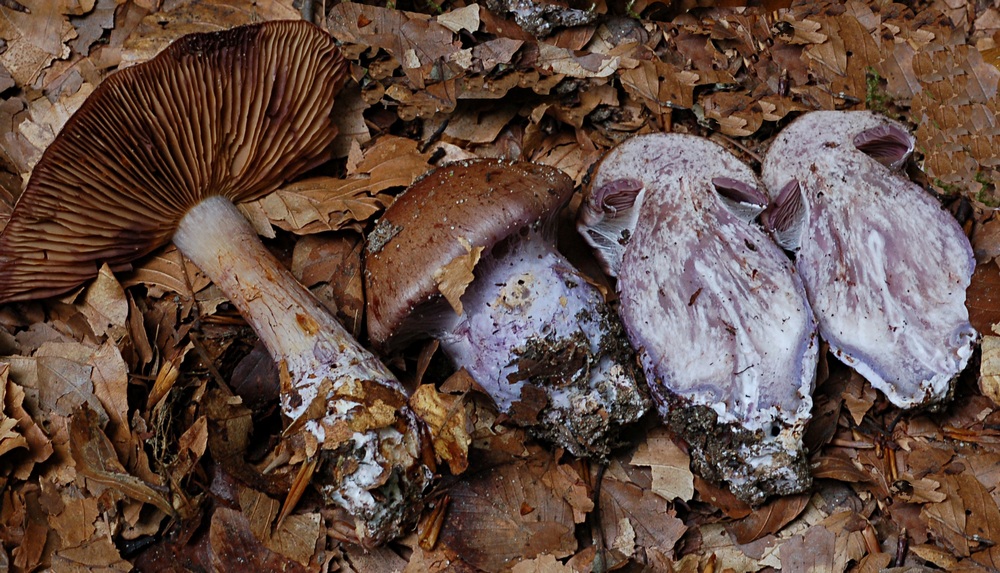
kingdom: Fungi
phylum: Basidiomycota
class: Agaricomycetes
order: Agaricales
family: Cortinariaceae
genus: Thaxterogaster
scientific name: Thaxterogaster collocandoides
